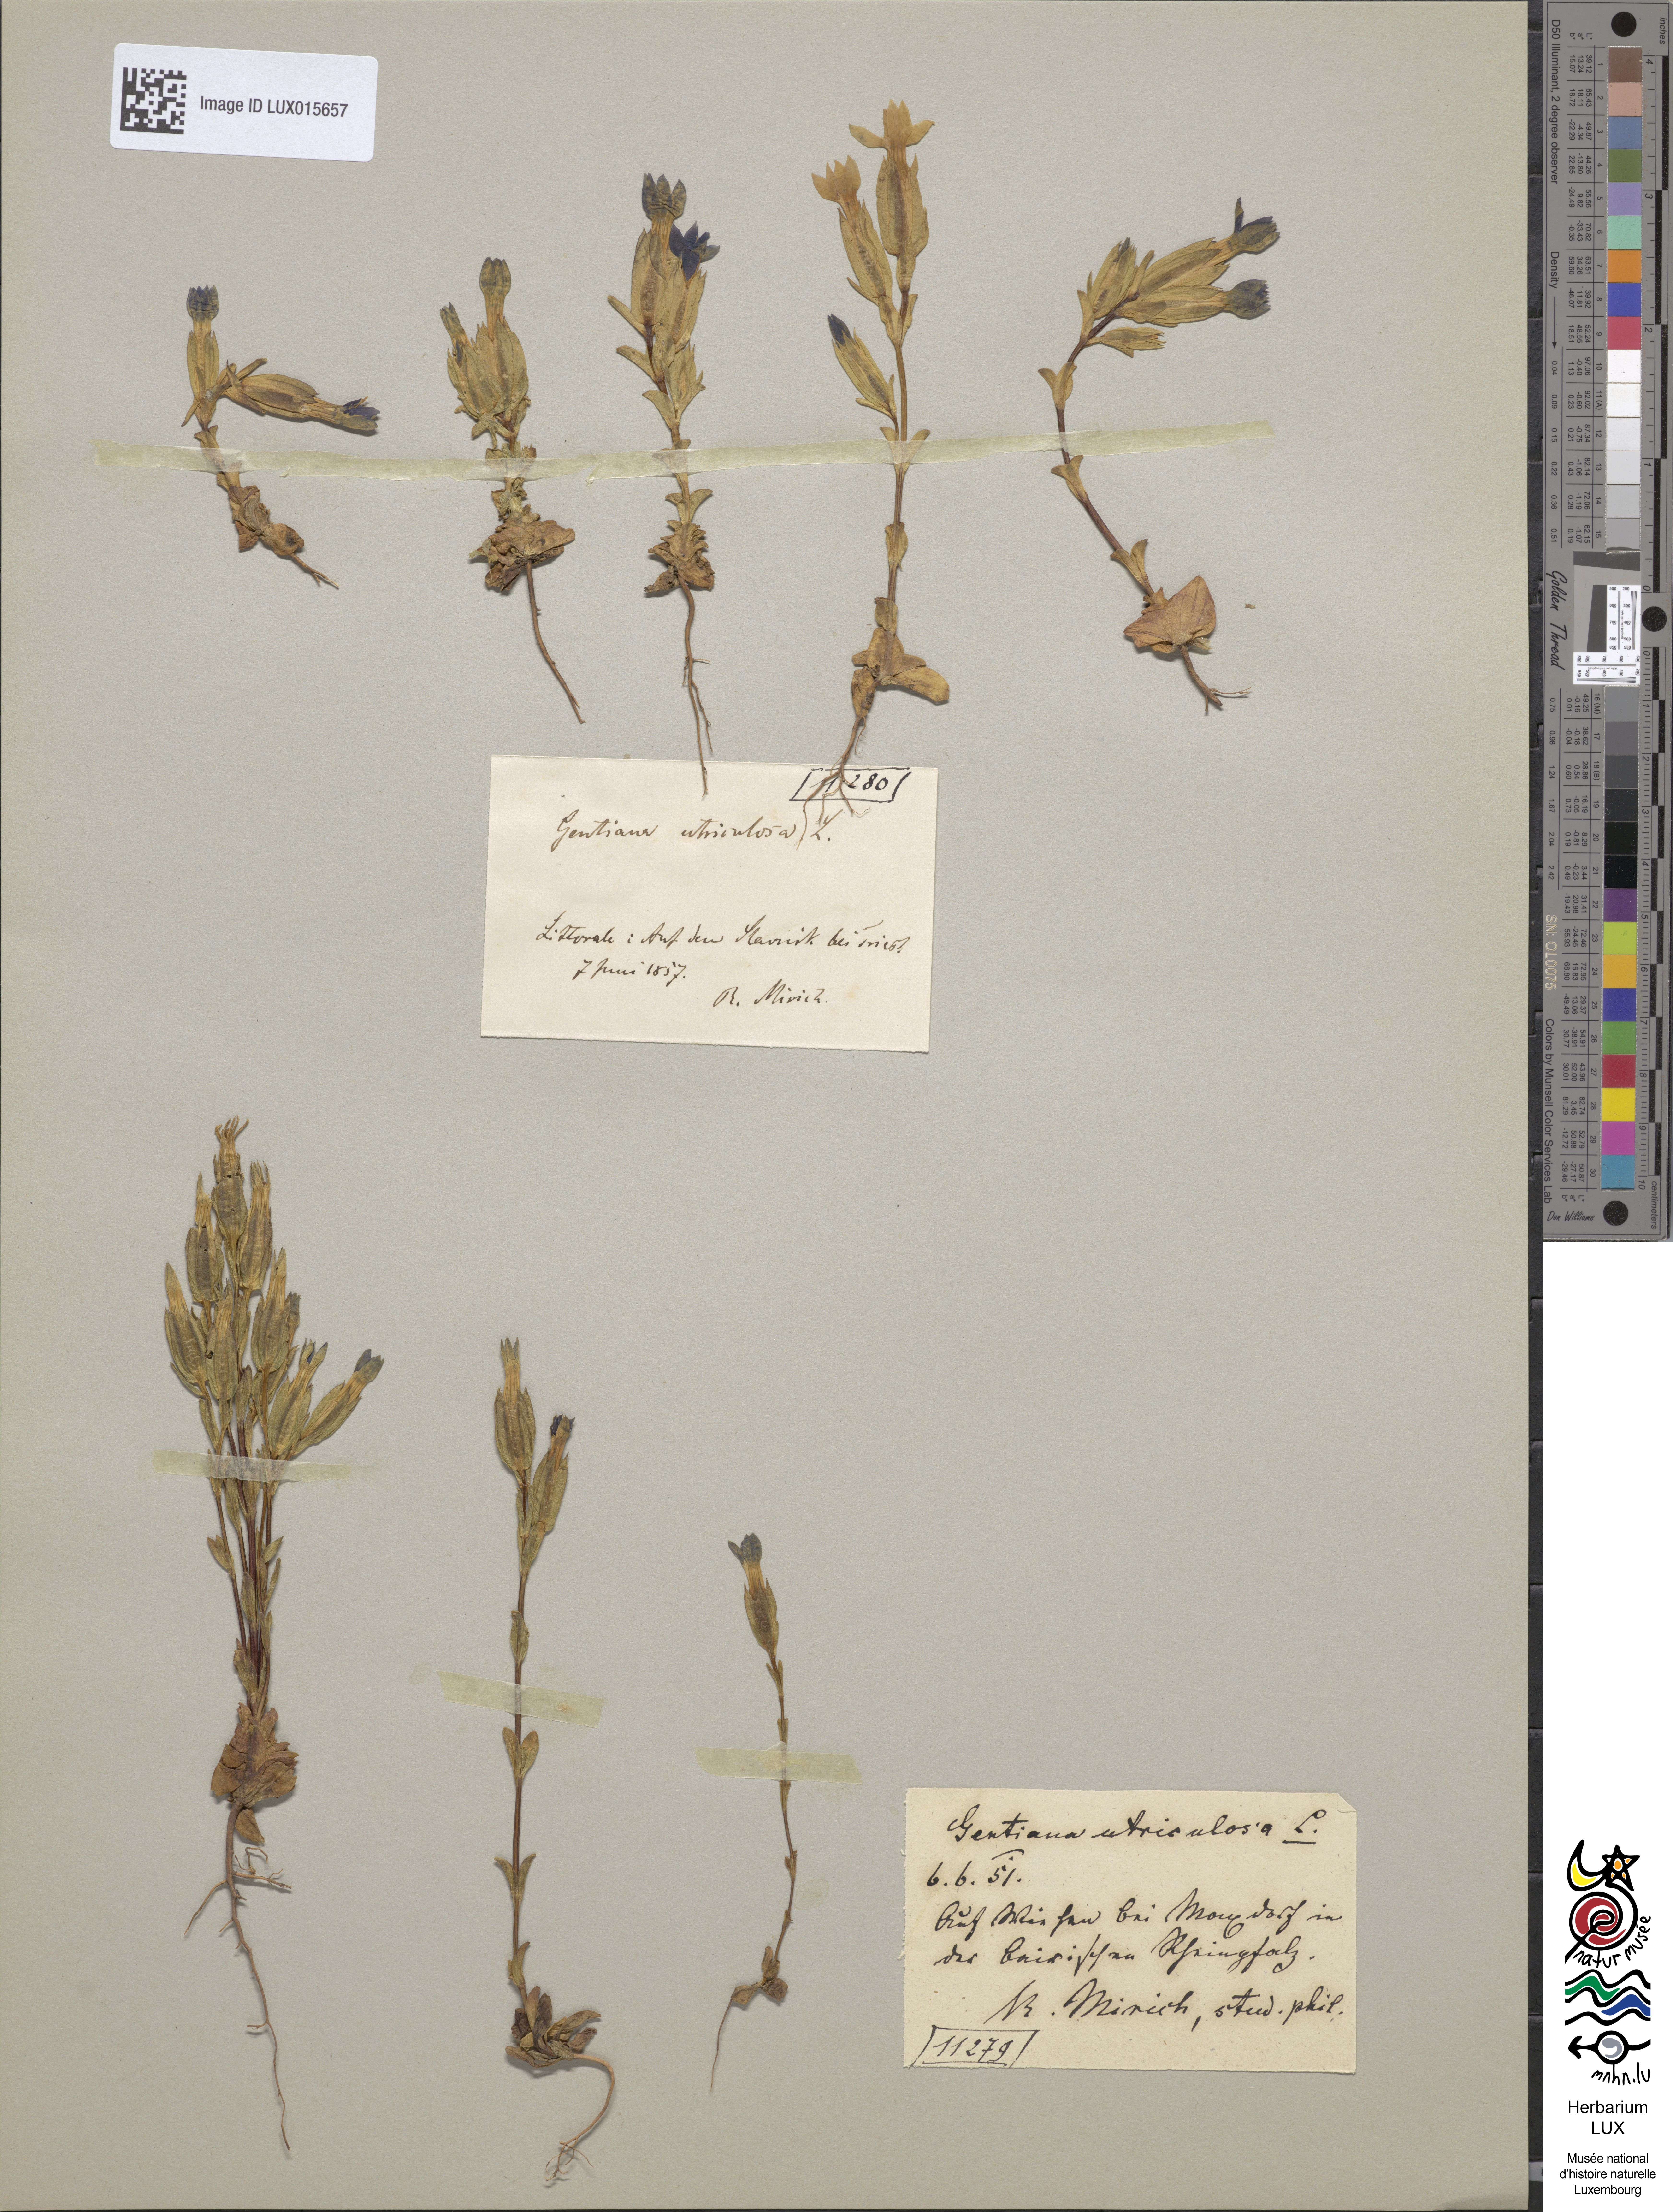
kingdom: Plantae
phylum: Tracheophyta
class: Magnoliopsida
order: Gentianales
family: Gentianaceae
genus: Gentiana
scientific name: Gentiana utriculosa
